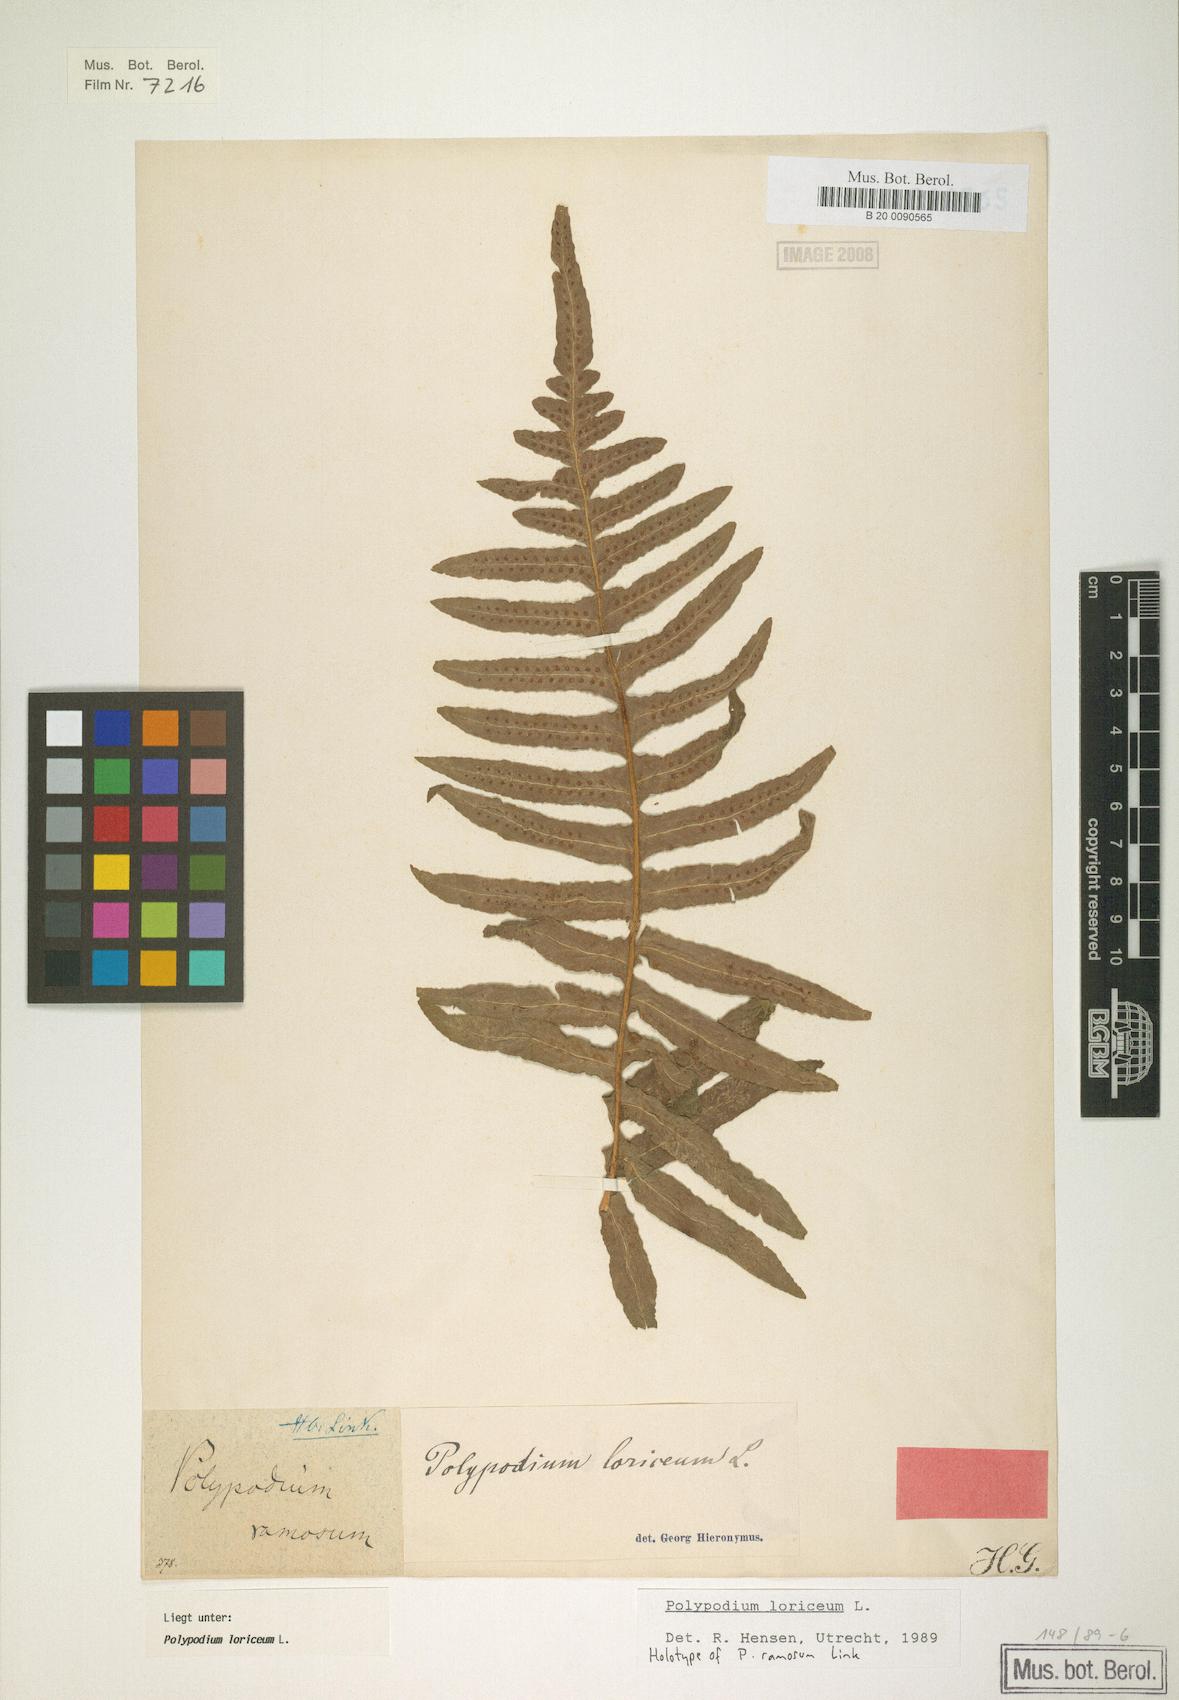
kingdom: Plantae
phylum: Tracheophyta
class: Polypodiopsida
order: Polypodiales
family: Polypodiaceae
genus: Serpocaulon
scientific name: Serpocaulon loriceum
